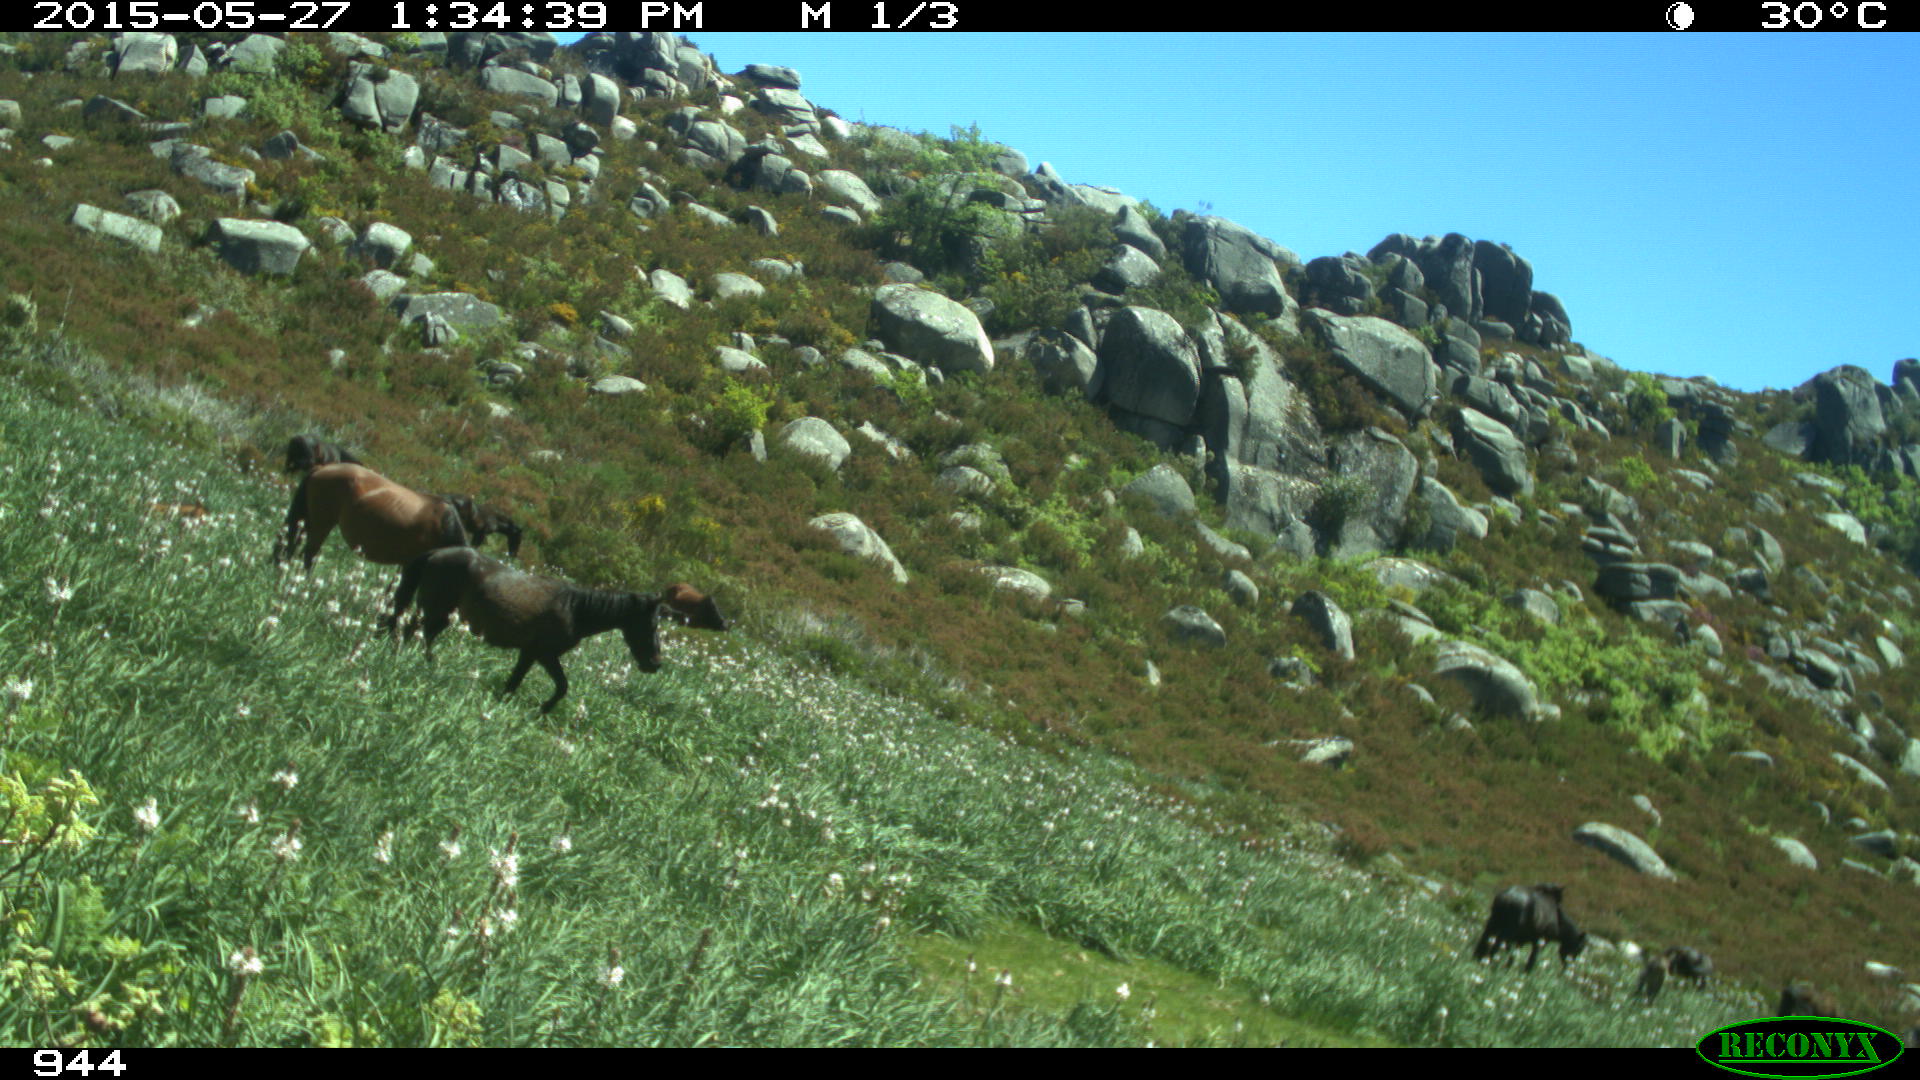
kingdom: Animalia
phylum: Chordata
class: Mammalia
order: Perissodactyla
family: Equidae
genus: Equus
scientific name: Equus caballus
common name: Horse
